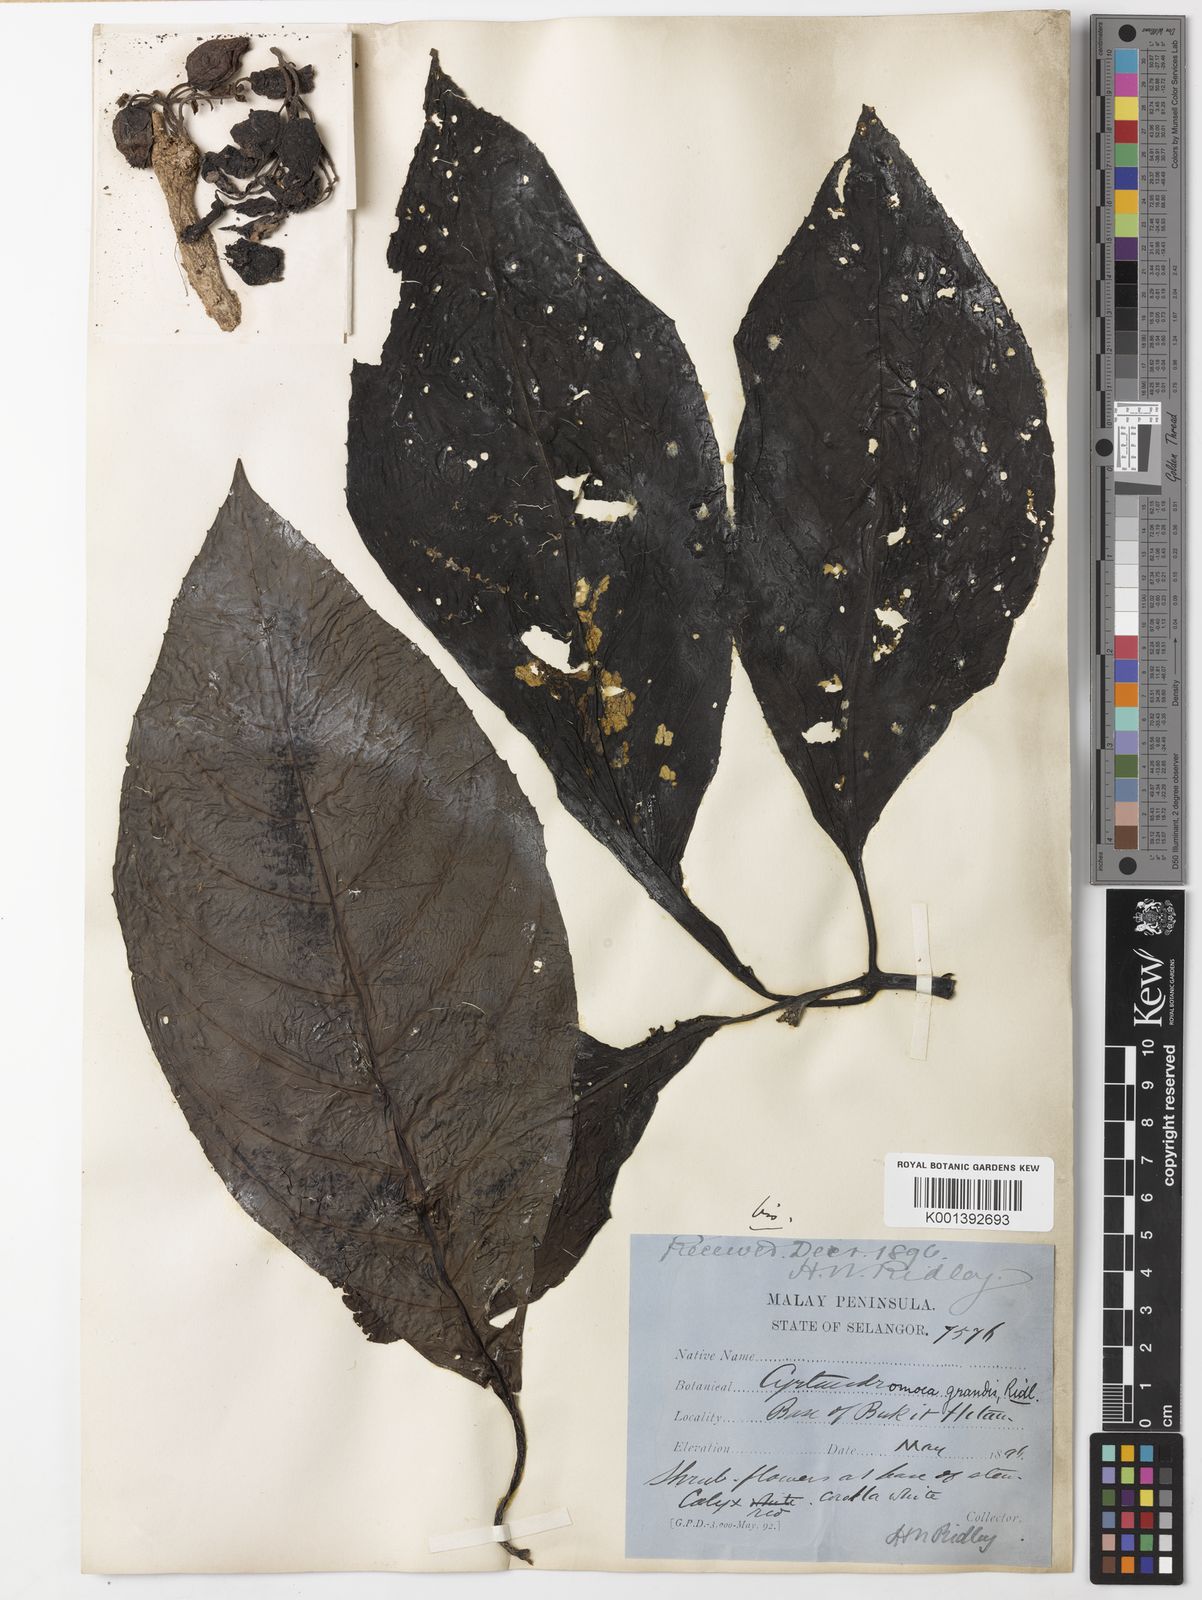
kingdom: Plantae
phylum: Tracheophyta
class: Magnoliopsida
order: Lamiales
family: Phrymaceae
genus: Cyrtandromoea
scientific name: Cyrtandromoea grandis
